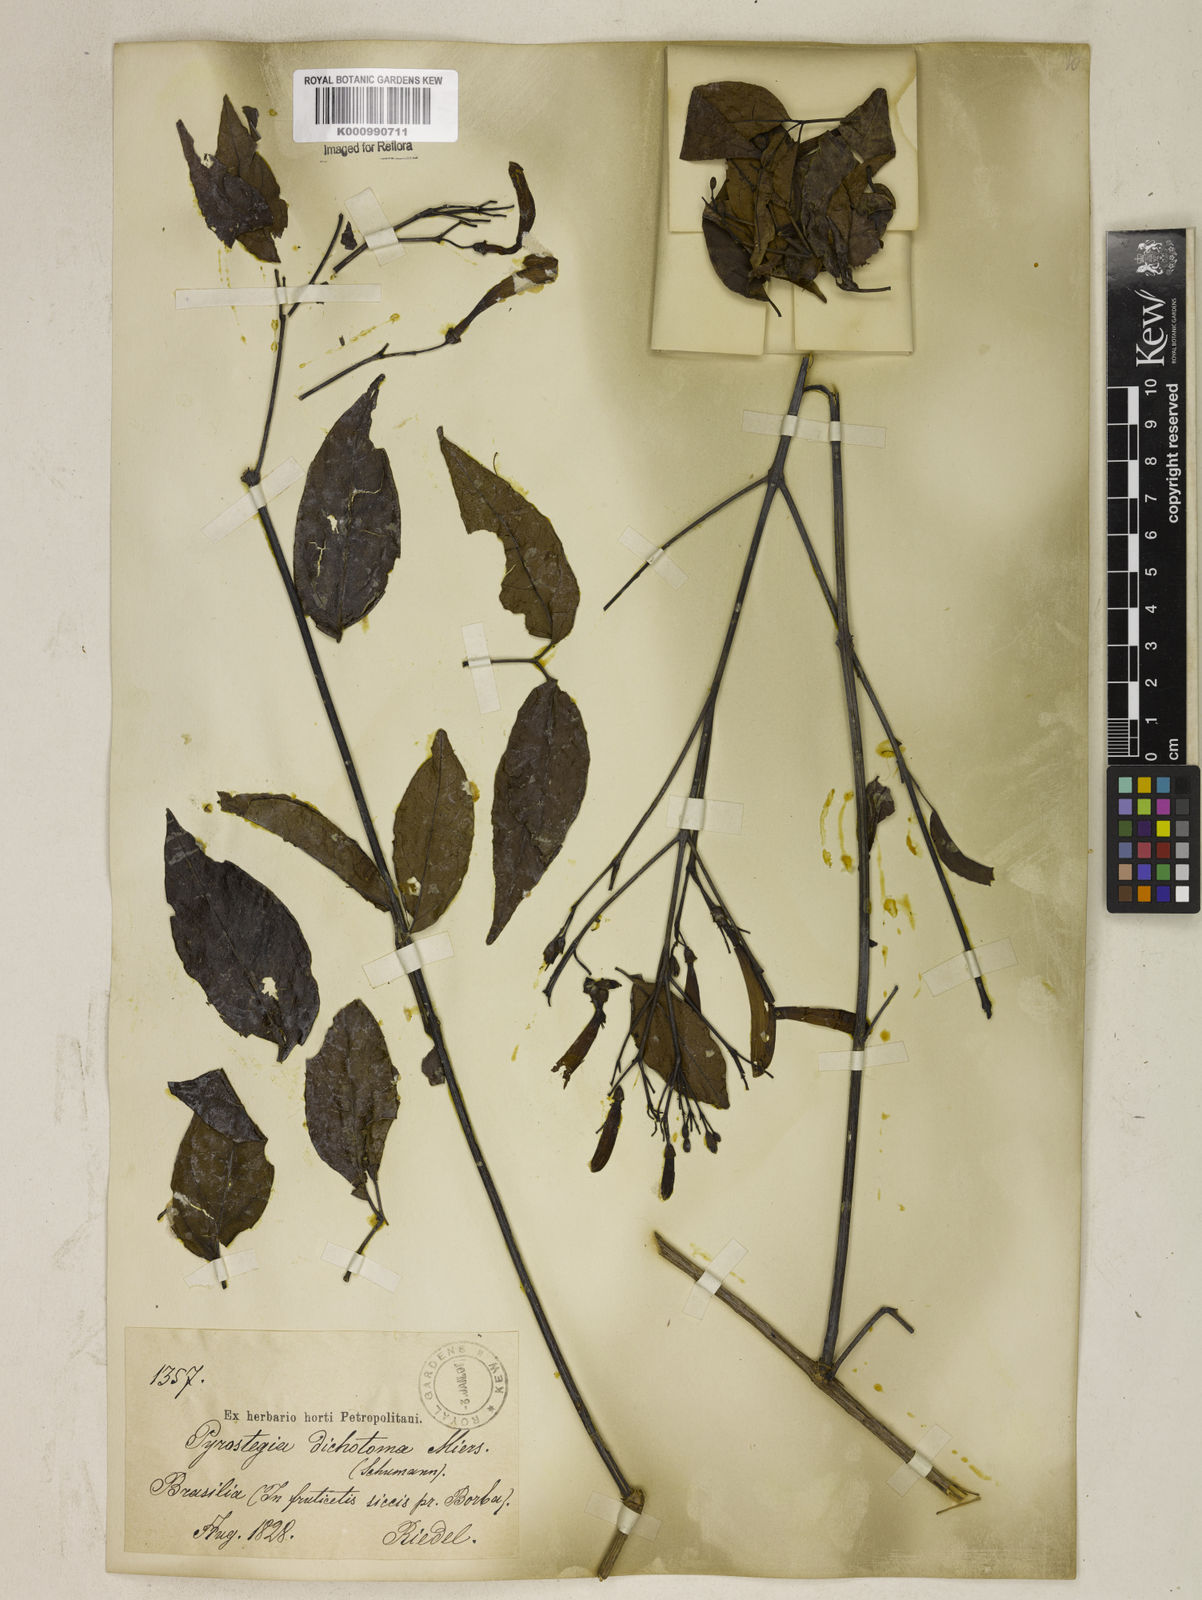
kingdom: Plantae
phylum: Tracheophyta
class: Magnoliopsida
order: Lamiales
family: Bignoniaceae
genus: Pyrostegia
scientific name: Pyrostegia
